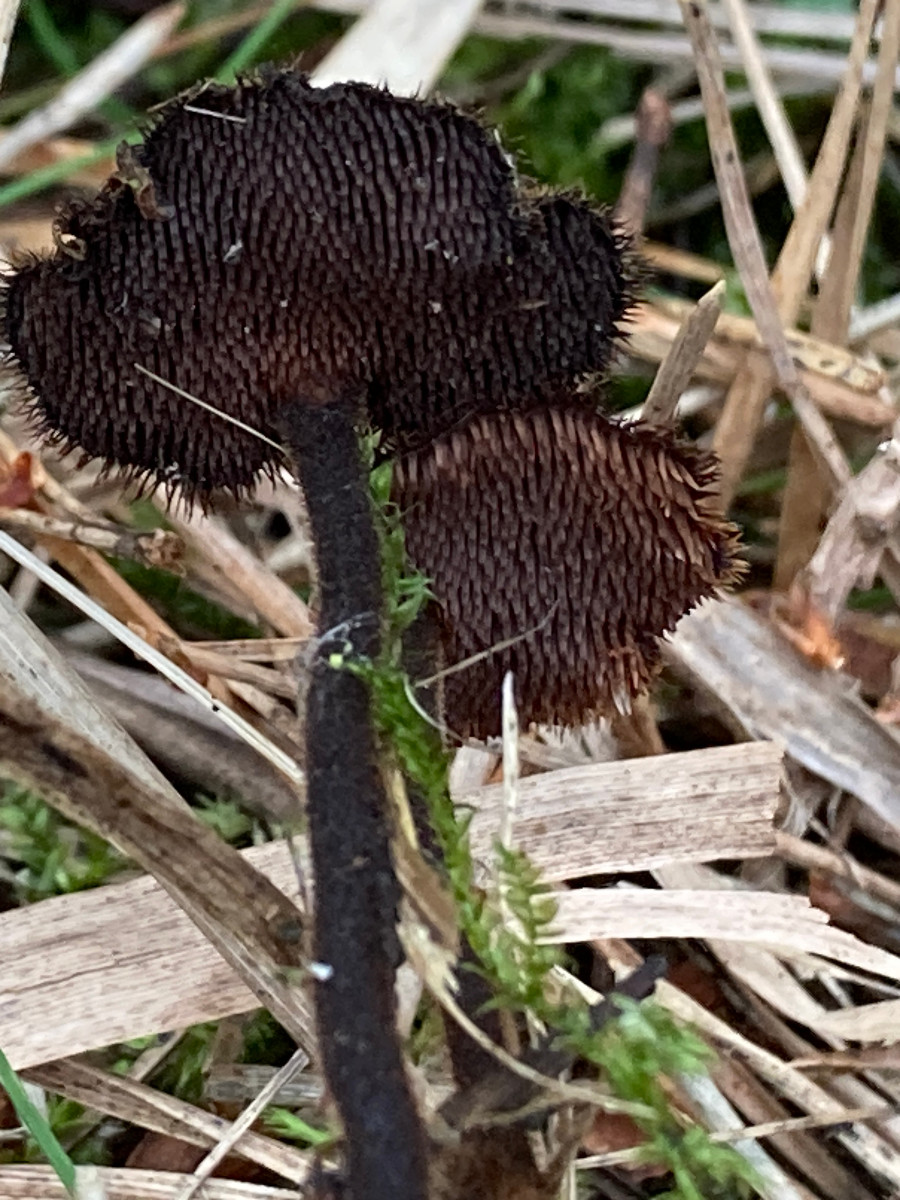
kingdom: Fungi
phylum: Basidiomycota
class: Agaricomycetes
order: Russulales
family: Auriscalpiaceae
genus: Auriscalpium
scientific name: Auriscalpium vulgare
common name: koglepigsvamp
